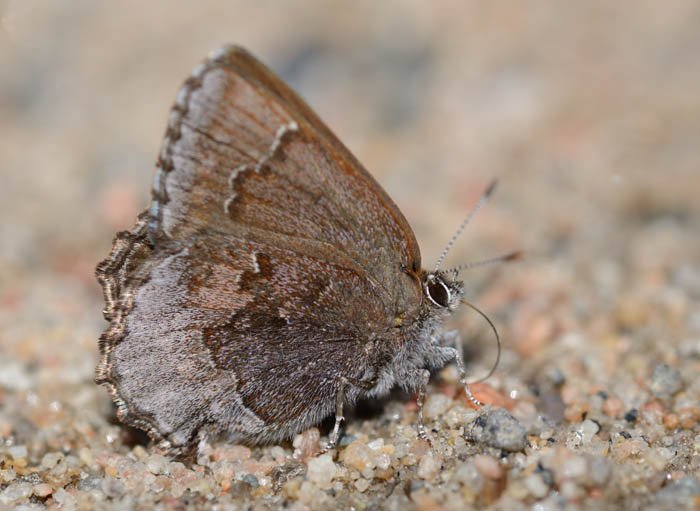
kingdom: Animalia
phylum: Arthropoda
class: Insecta
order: Lepidoptera
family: Lycaenidae
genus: Callophrys
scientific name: Callophrys polios
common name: Hoary Elfin
